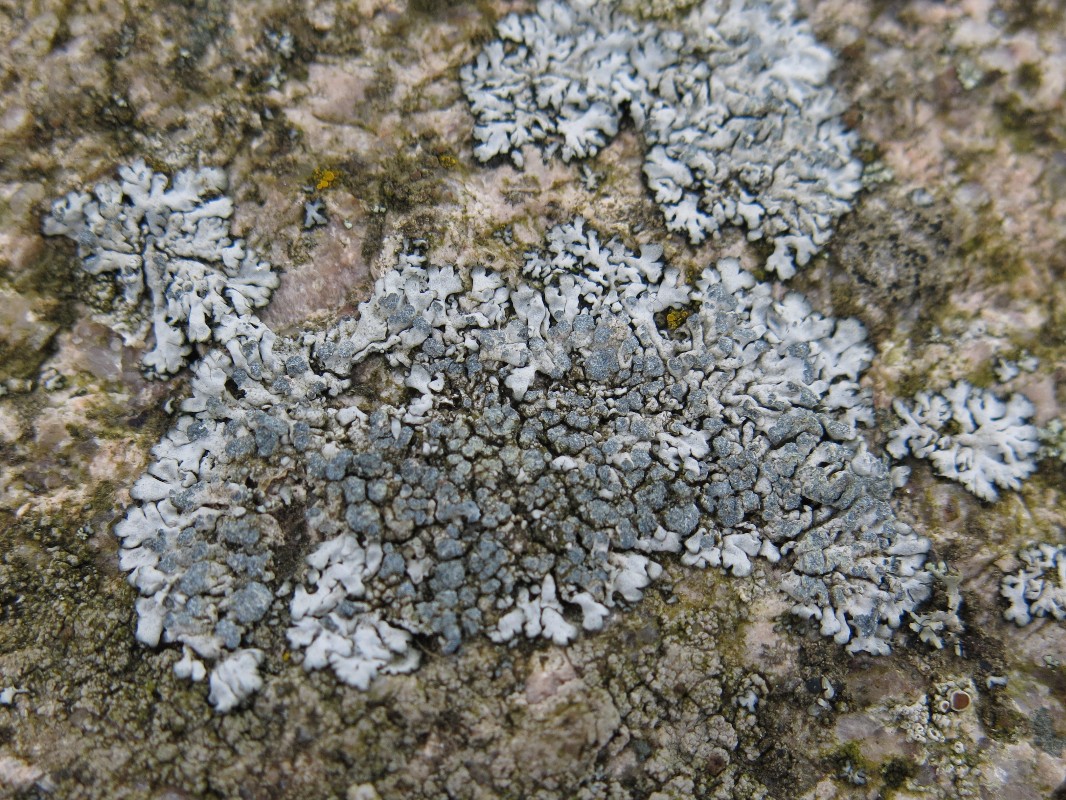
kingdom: Fungi
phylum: Ascomycota
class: Lecanoromycetes
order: Caliciales
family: Physciaceae
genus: Physcia
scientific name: Physcia caesia
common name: blågrå rosetlav
